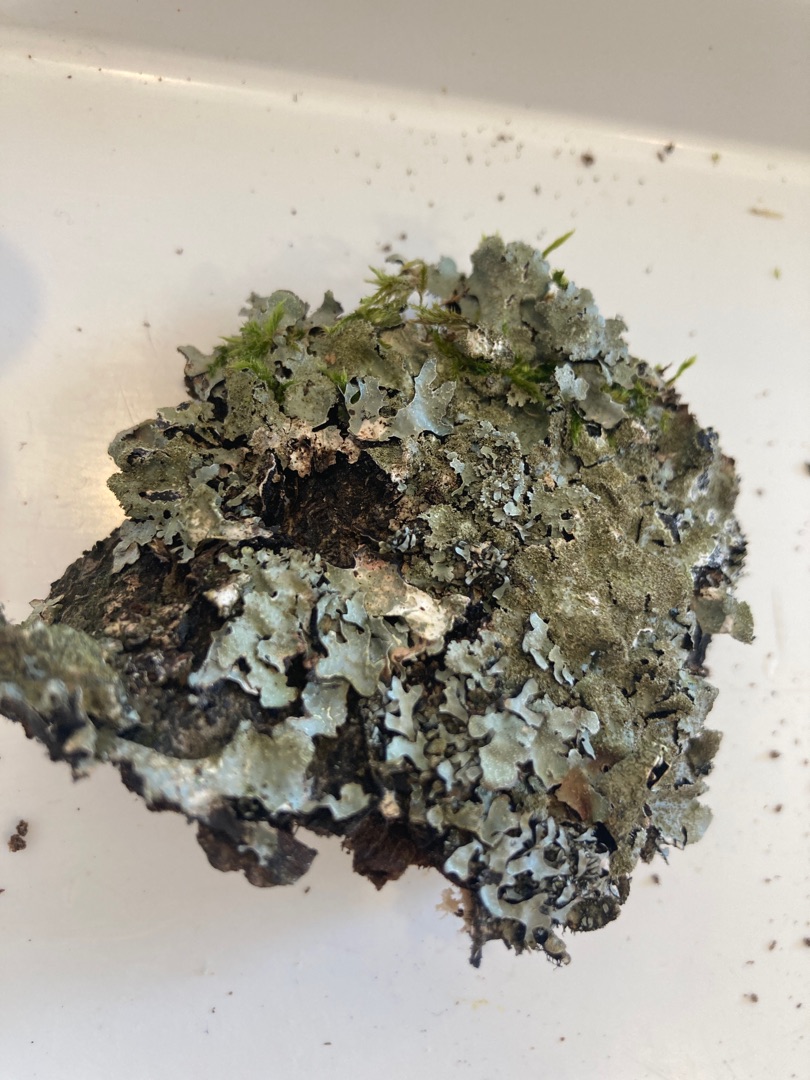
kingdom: Fungi
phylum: Ascomycota
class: Lecanoromycetes
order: Lecanorales
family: Parmeliaceae
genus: Parmelia
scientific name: Parmelia sulcata
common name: Rynket skållav
